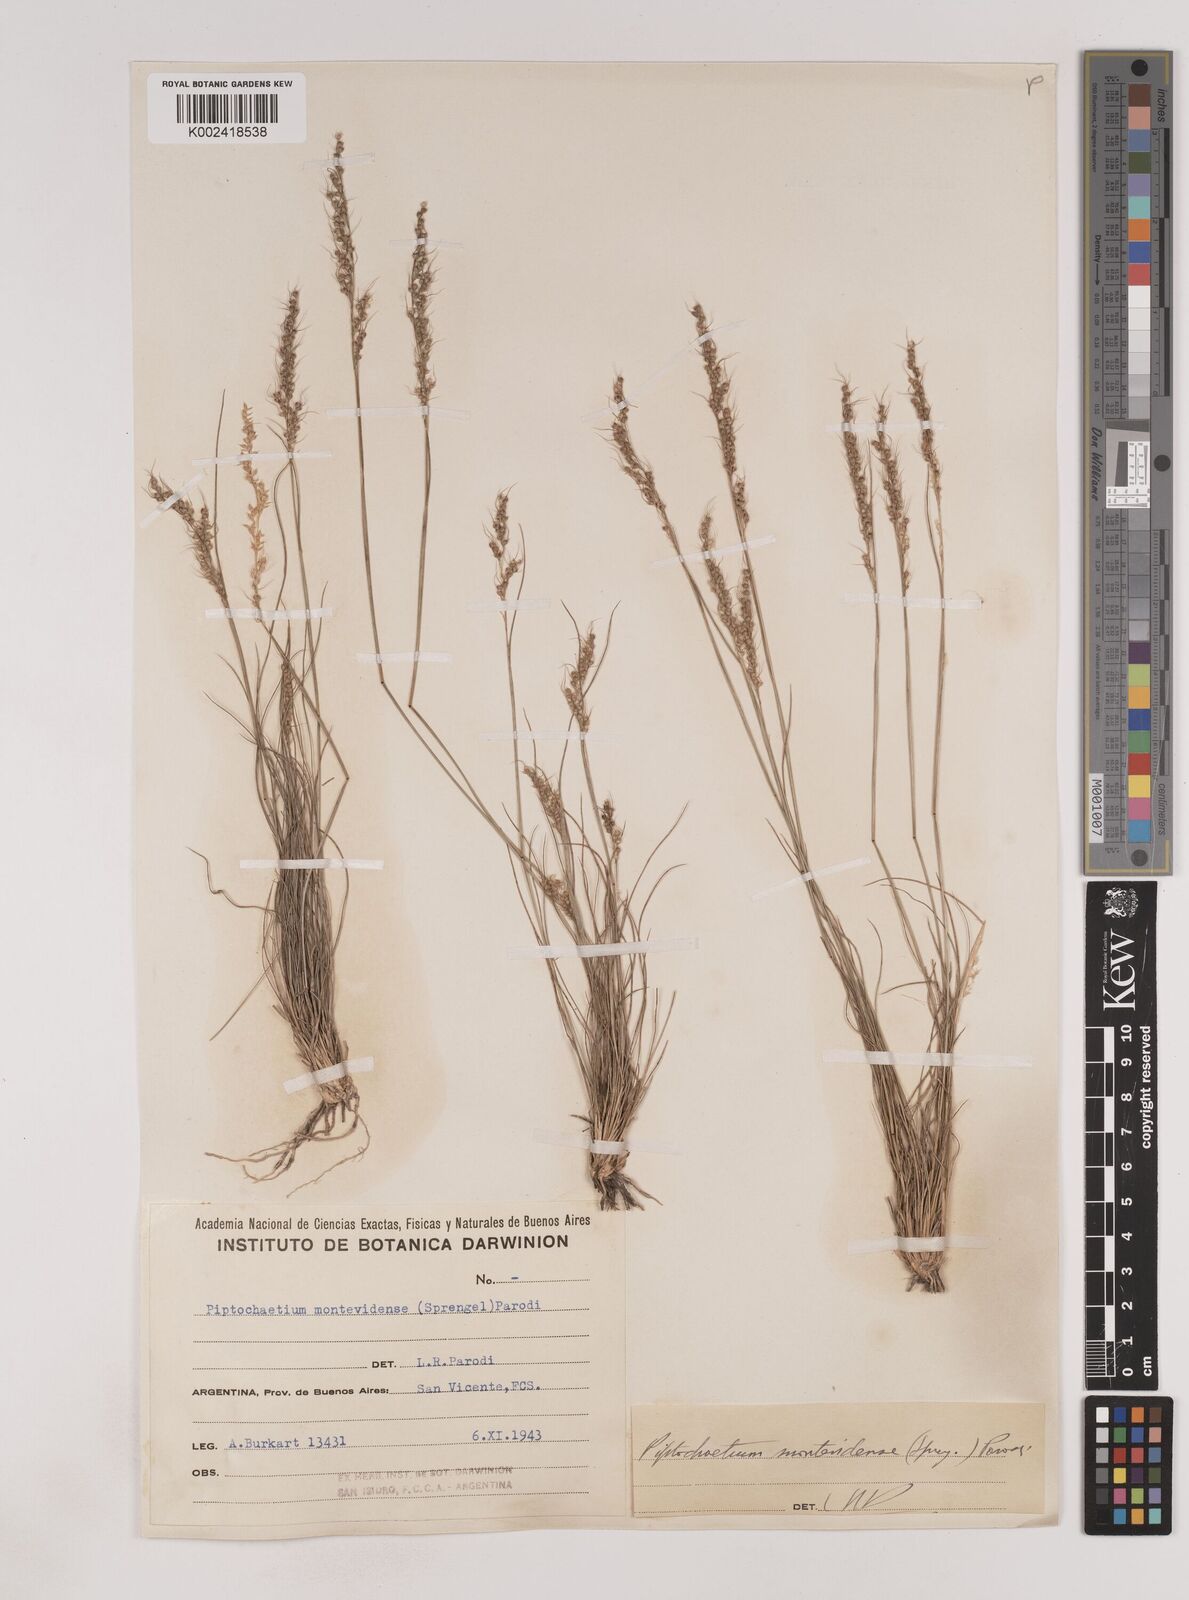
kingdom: Plantae
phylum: Tracheophyta
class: Liliopsida
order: Poales
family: Poaceae
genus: Piptochaetium
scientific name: Piptochaetium montevidense
